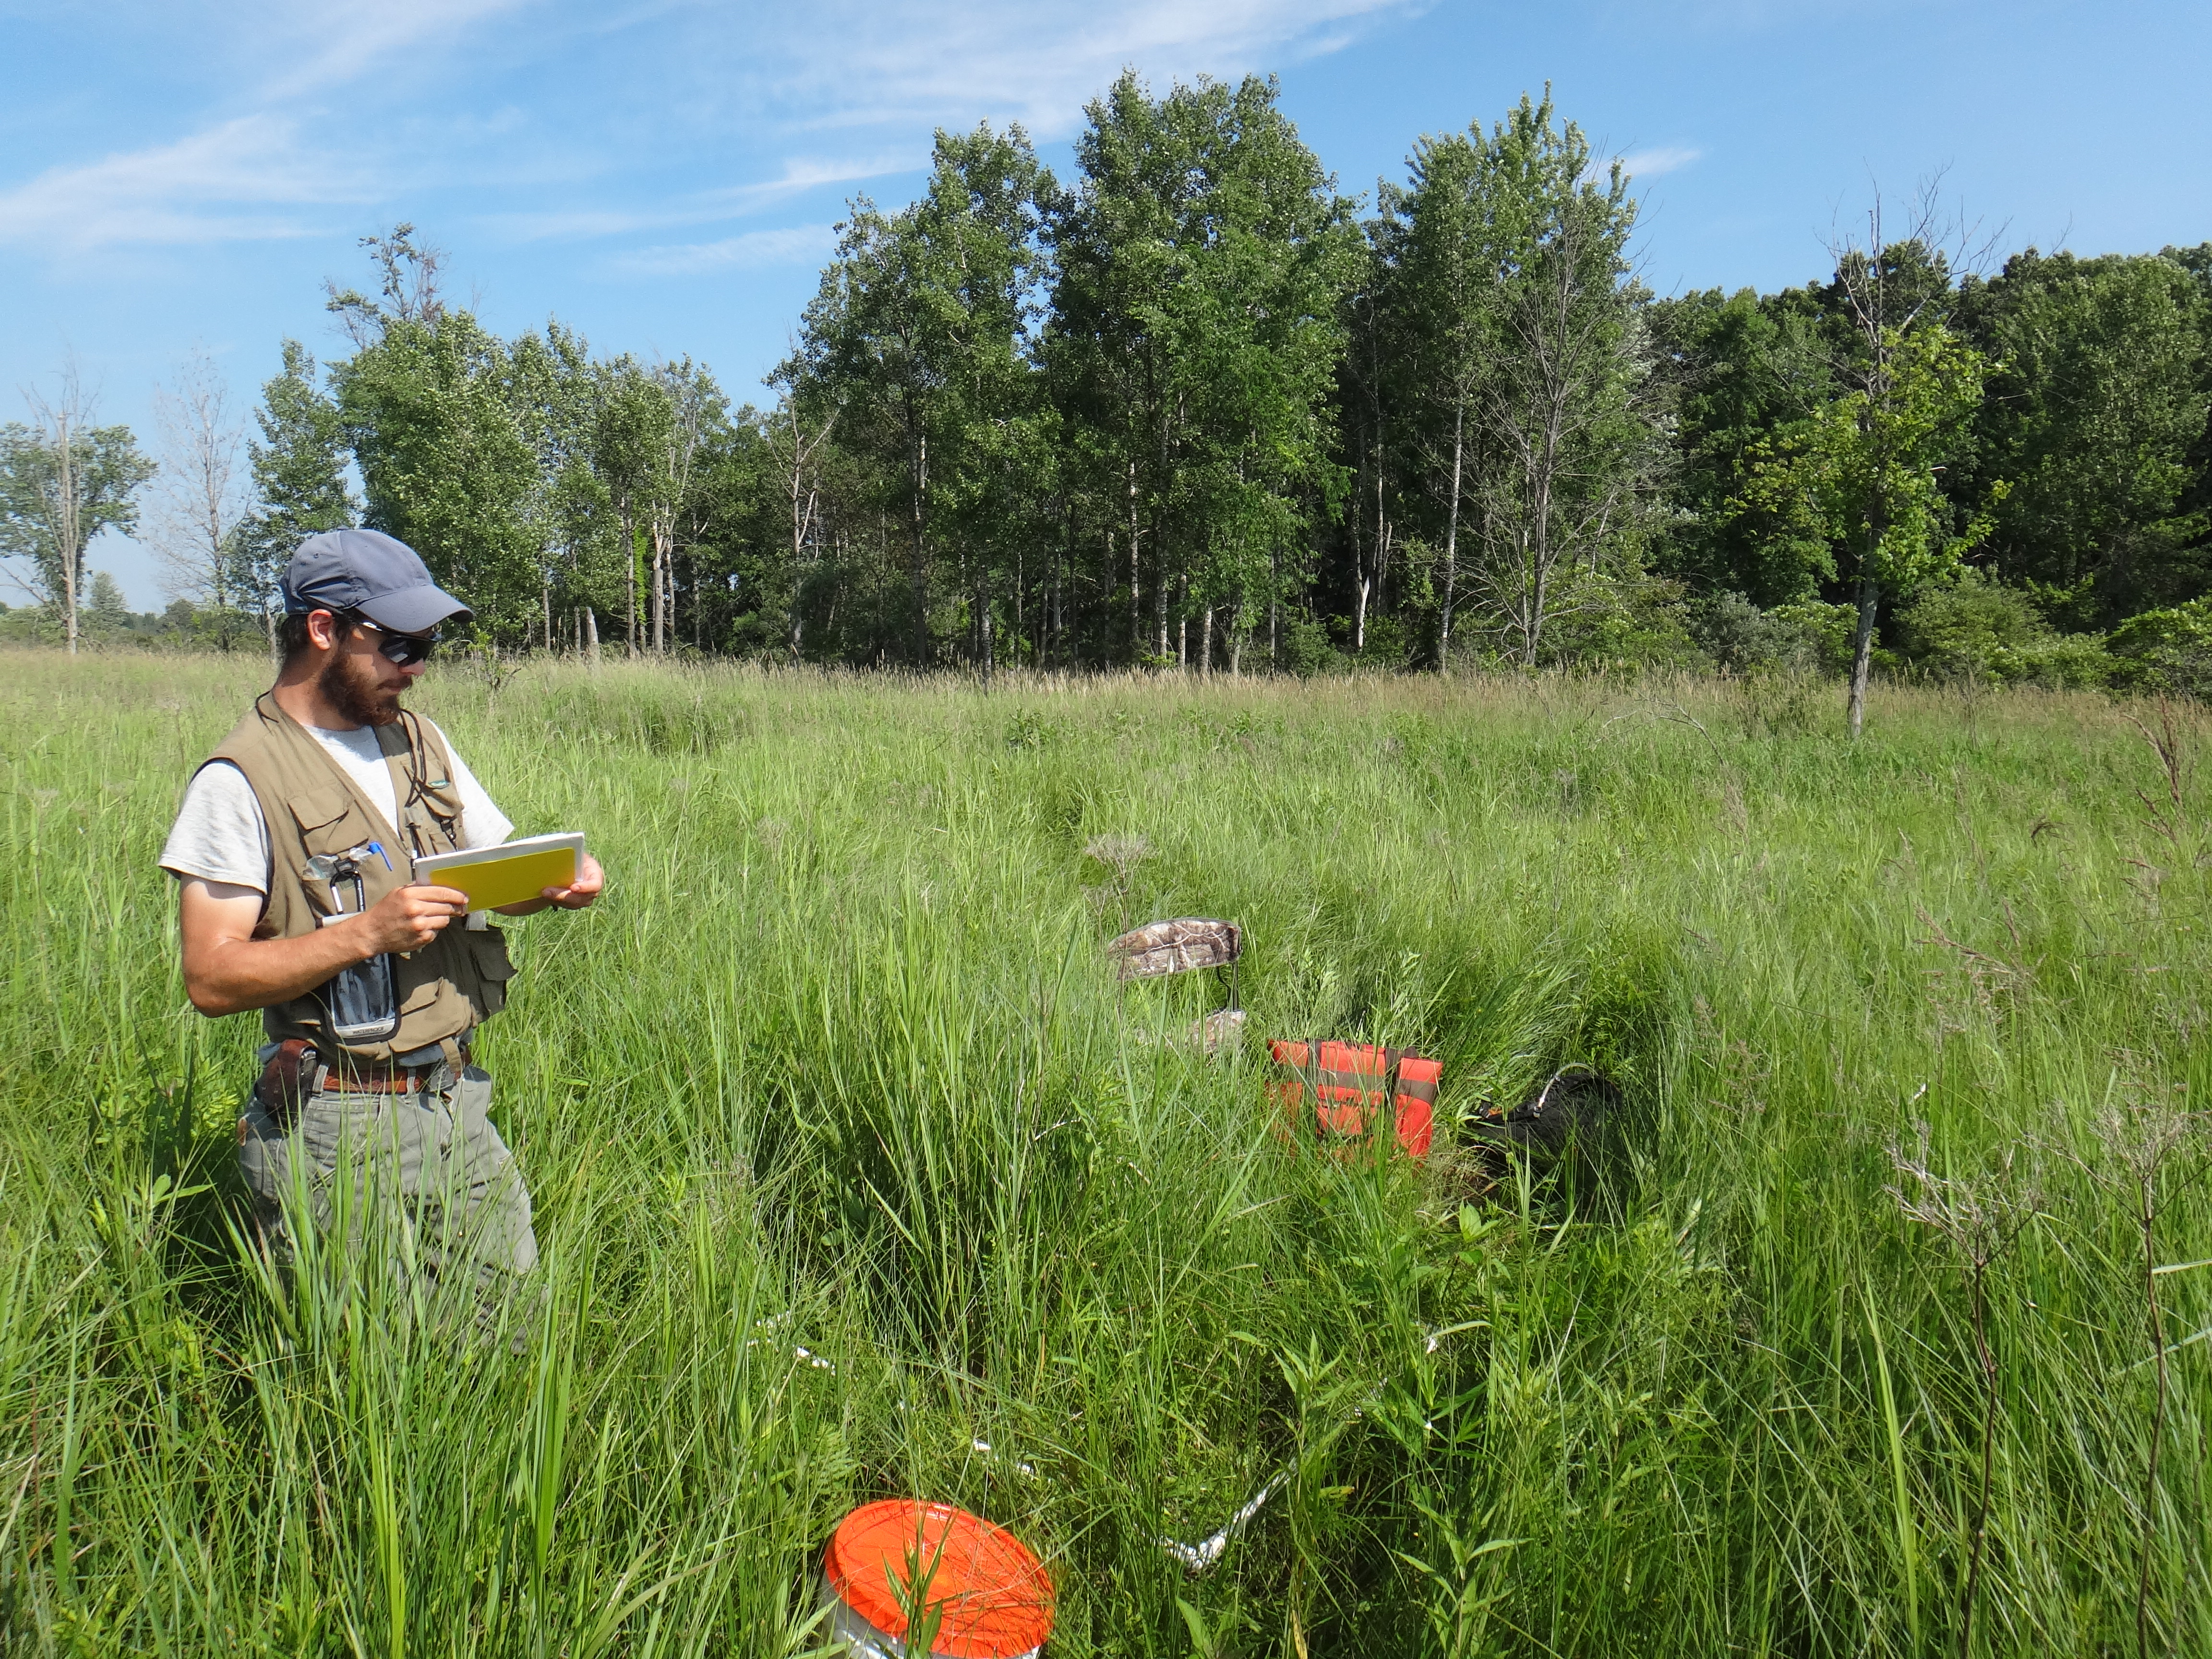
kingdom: Plantae
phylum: Tracheophyta
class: Magnoliopsida
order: Asterales
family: Campanulaceae
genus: Palustricodon
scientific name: Palustricodon aparinoides
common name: Bedstraw bellflower
